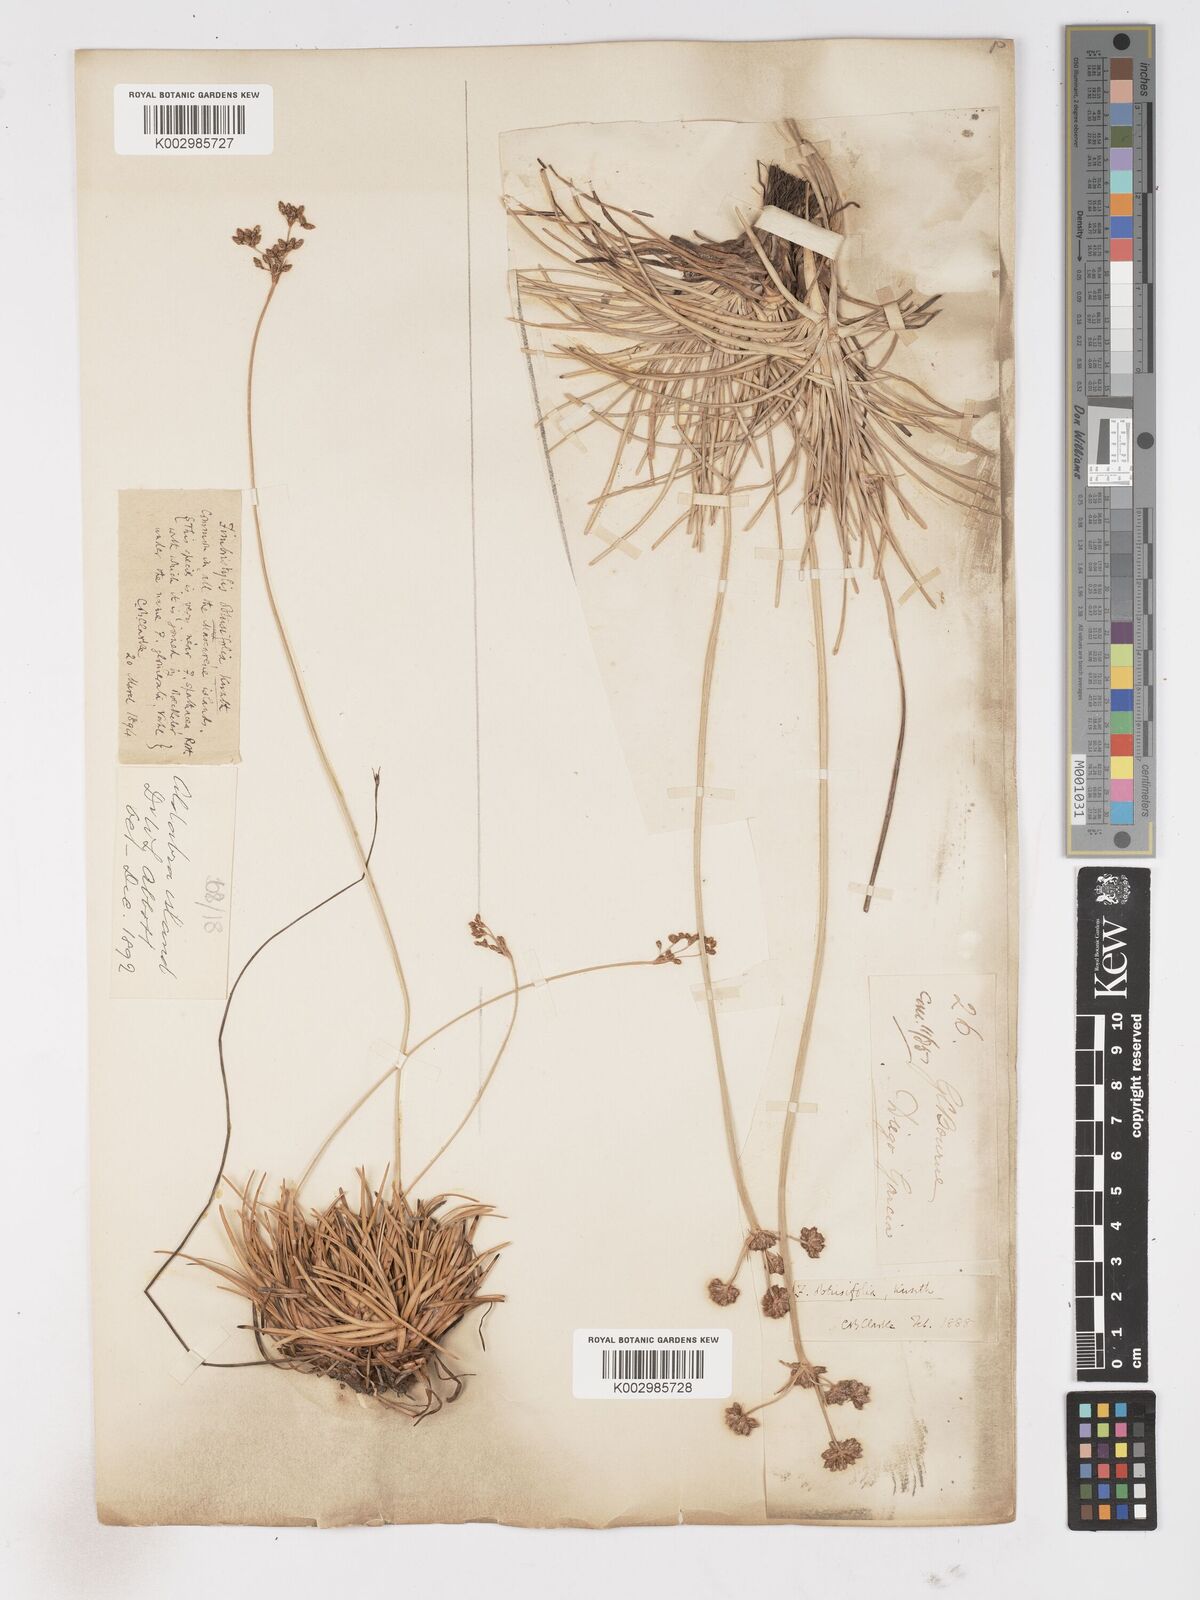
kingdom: Plantae
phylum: Tracheophyta
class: Liliopsida
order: Poales
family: Cyperaceae
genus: Fimbristylis
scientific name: Fimbristylis cymosa
